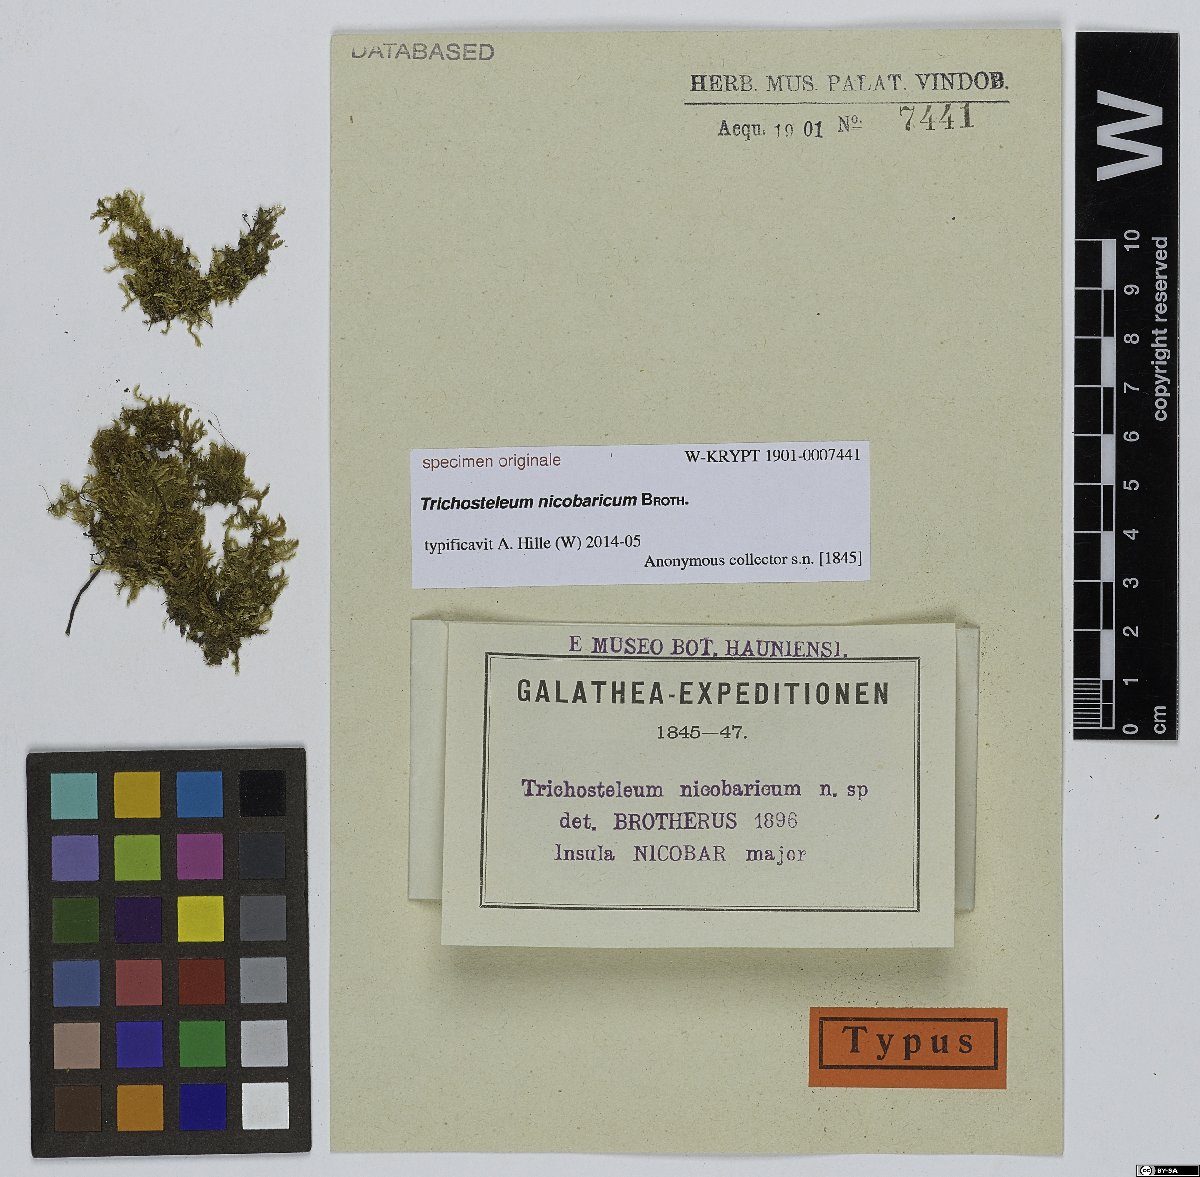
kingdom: Plantae
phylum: Bryophyta
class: Bryopsida
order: Hypnales
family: Sematophyllaceae
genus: Trichosteleum
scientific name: Trichosteleum
